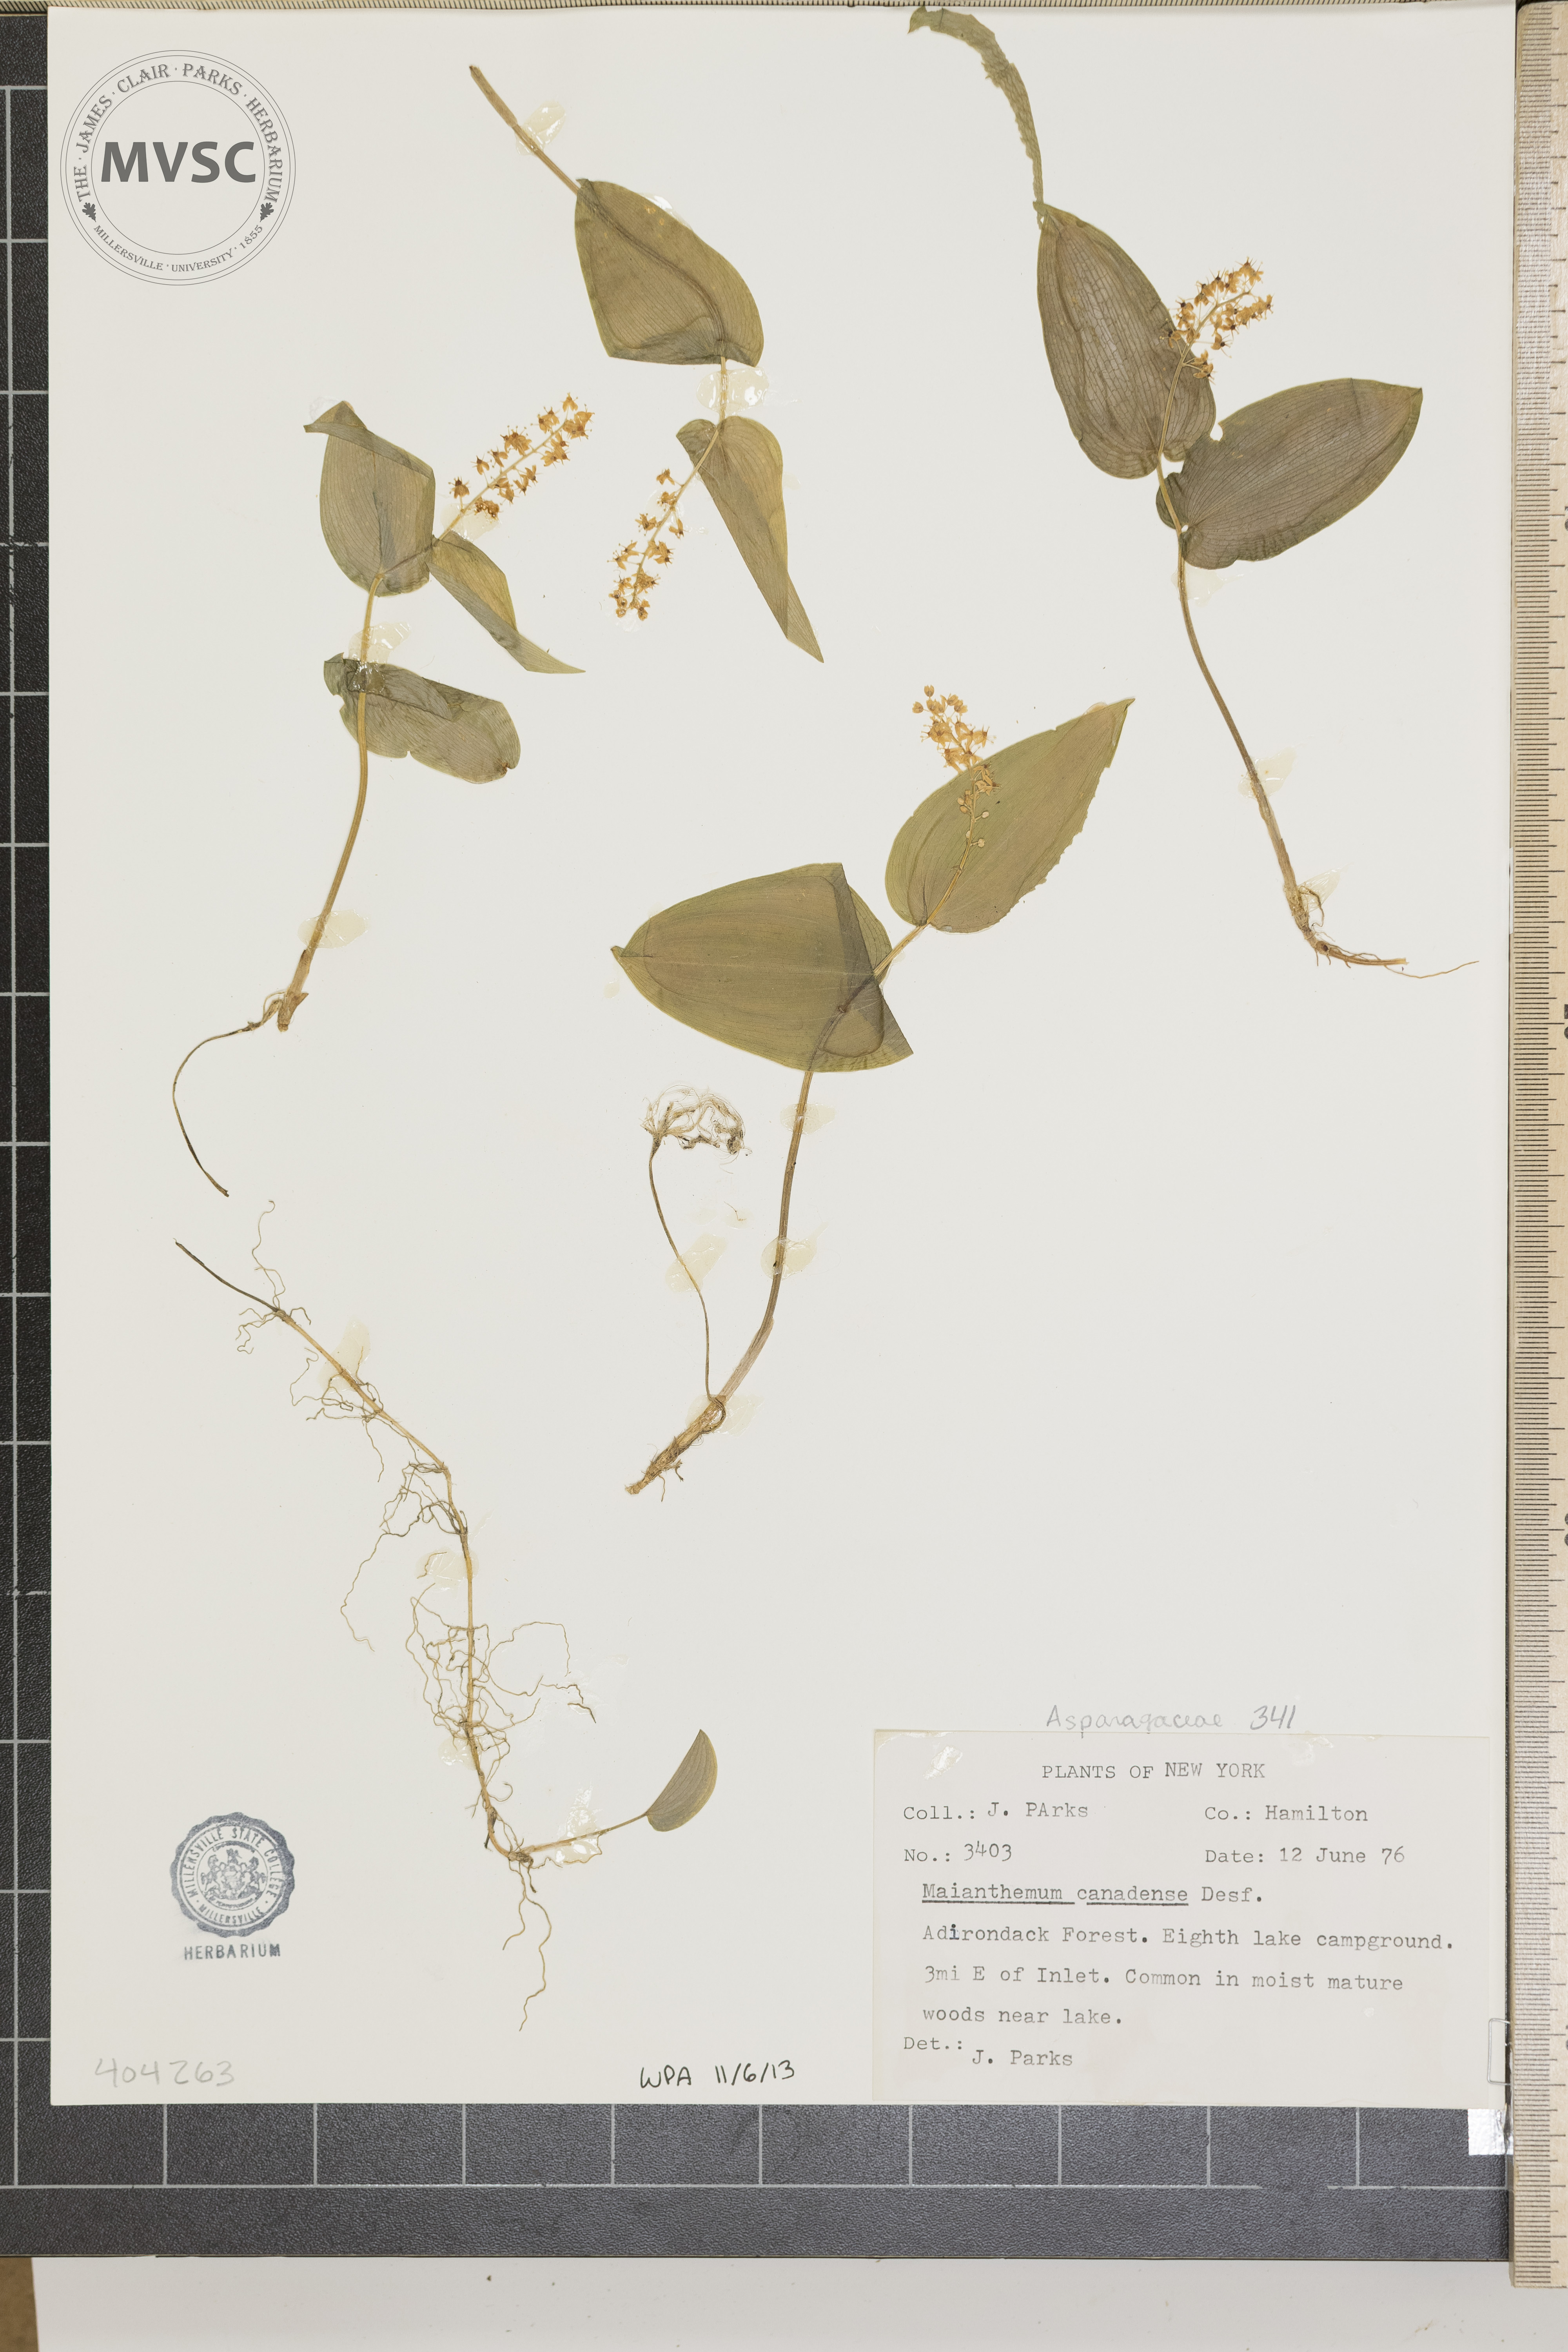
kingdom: Plantae
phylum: Tracheophyta
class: Liliopsida
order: Asparagales
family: Asparagaceae
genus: Maianthemum
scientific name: Maianthemum canadense
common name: False lily-of-the-valley
